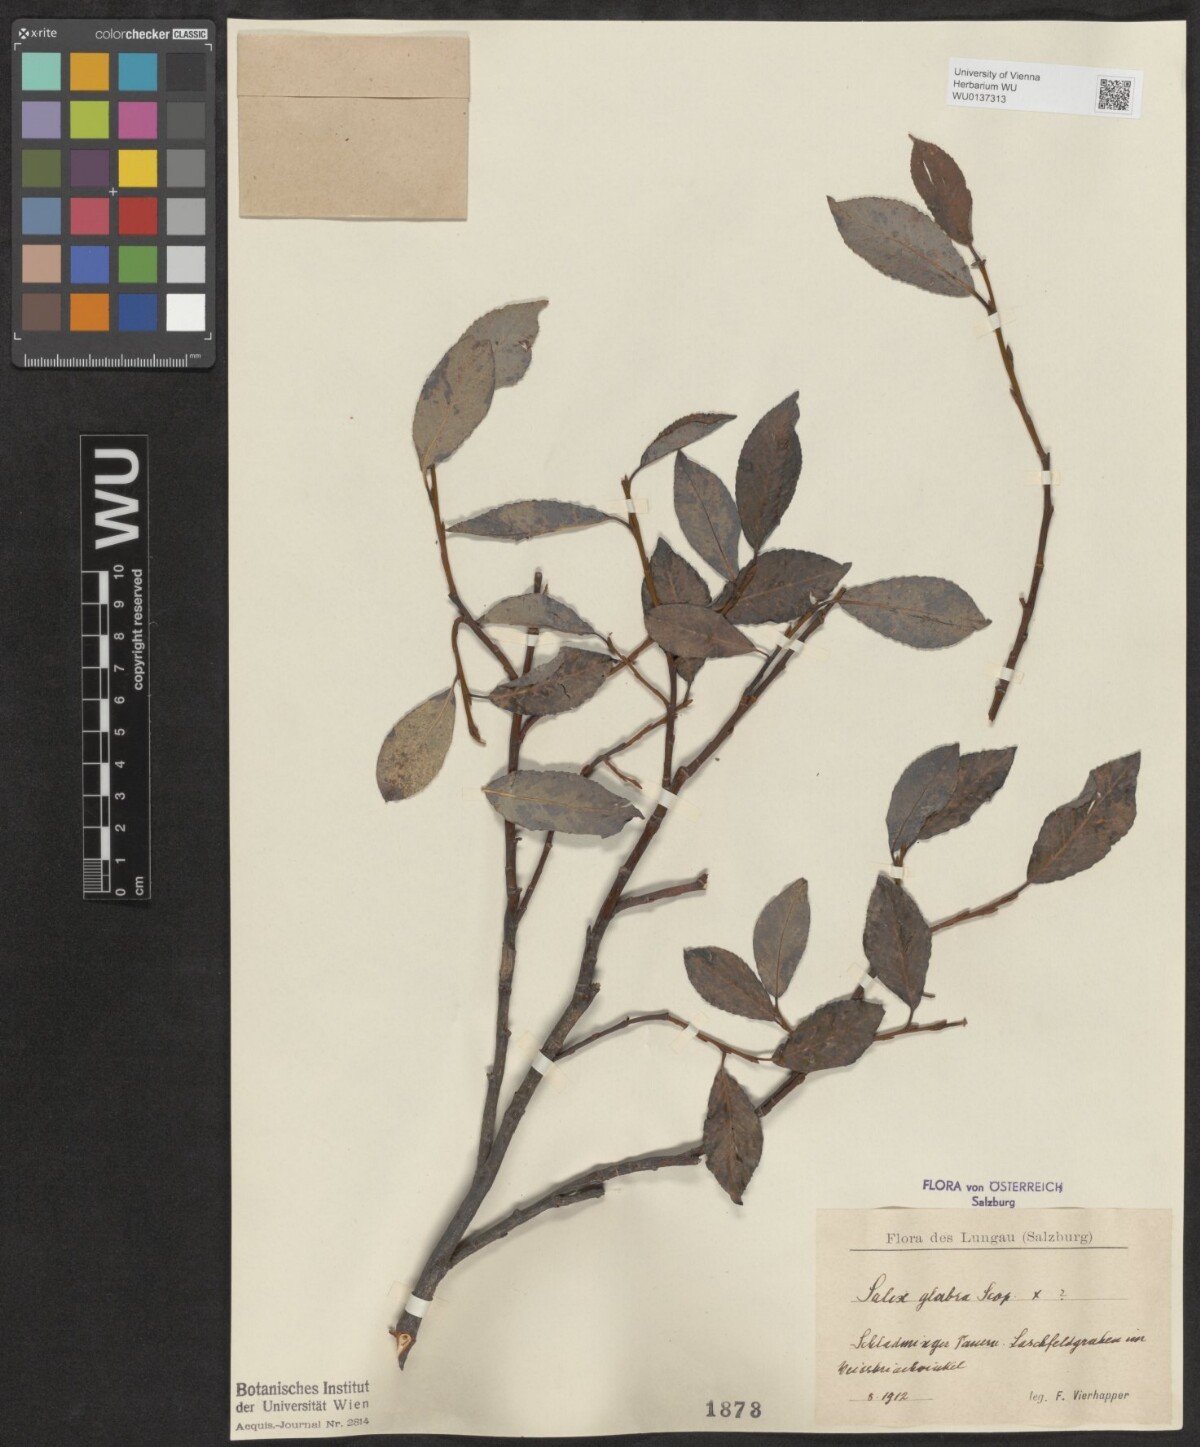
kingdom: Plantae
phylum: Tracheophyta
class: Magnoliopsida
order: Malpighiales
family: Salicaceae
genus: Salix
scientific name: Salix glabra
